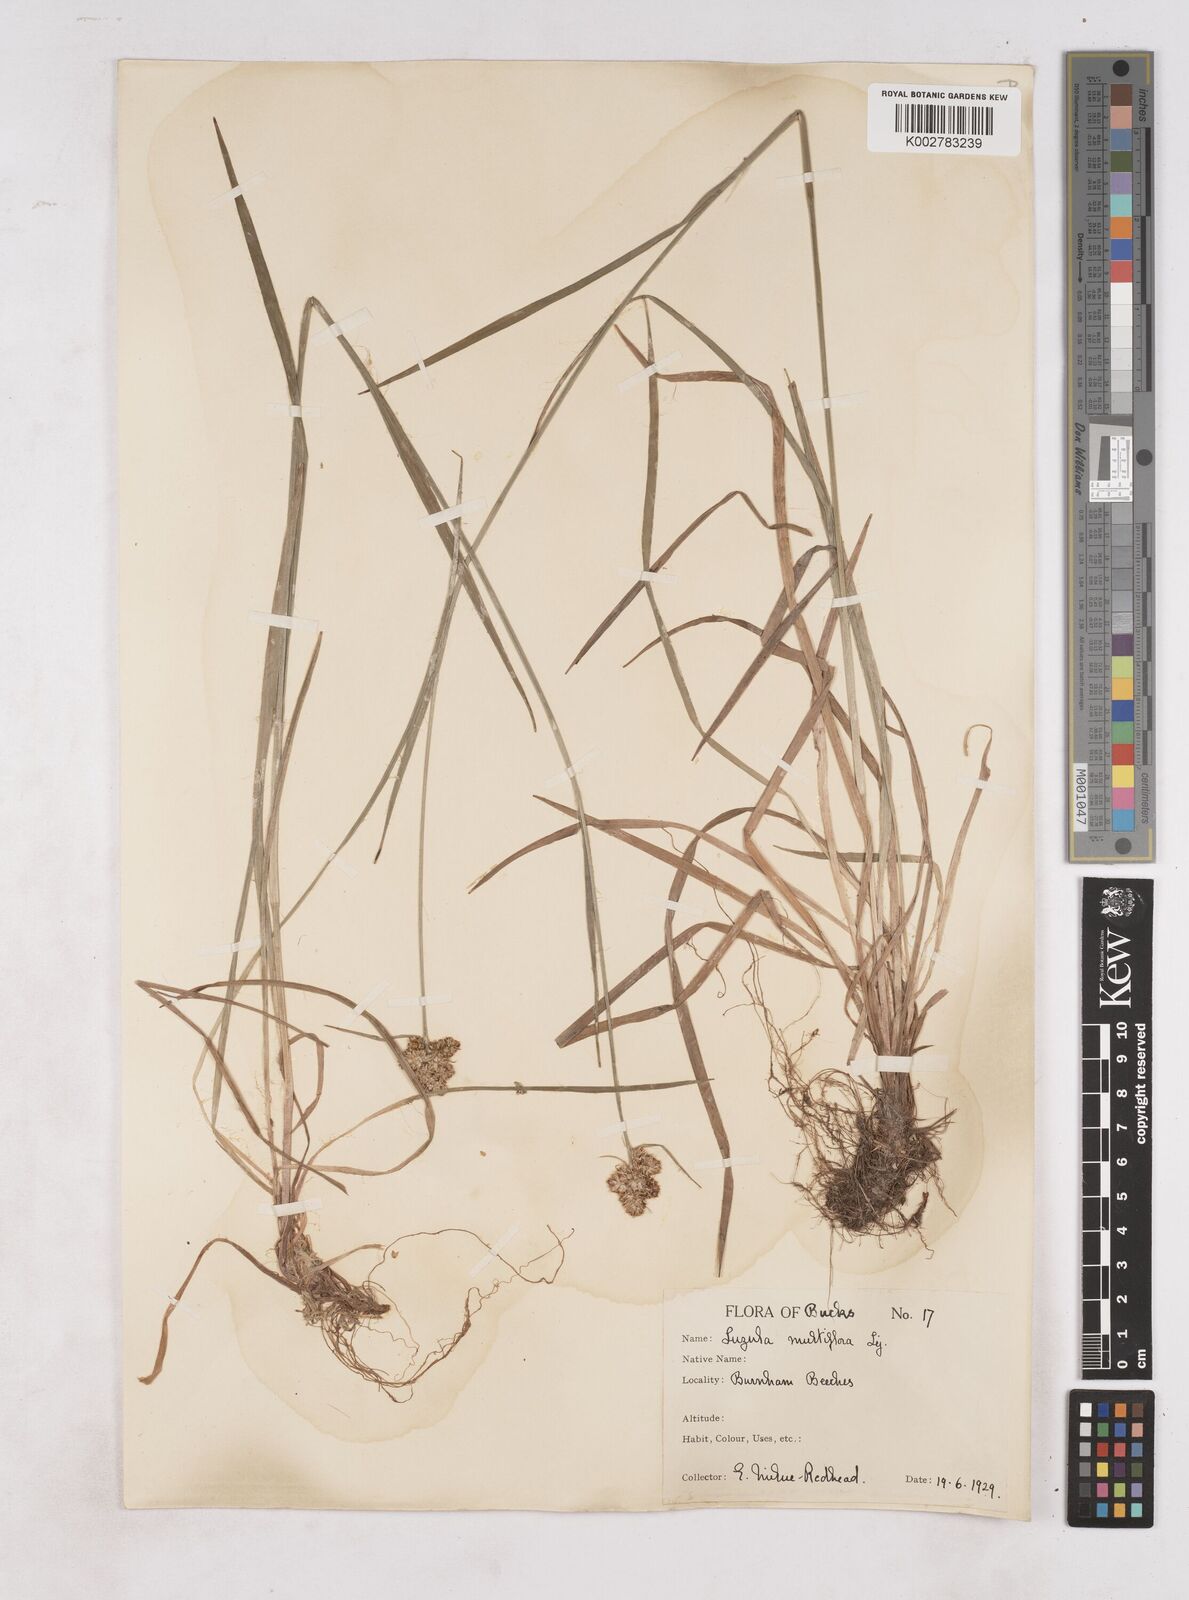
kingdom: Plantae
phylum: Tracheophyta
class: Liliopsida
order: Poales
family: Juncaceae
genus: Luzula
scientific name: Luzula multiflora
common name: Heath wood-rush
